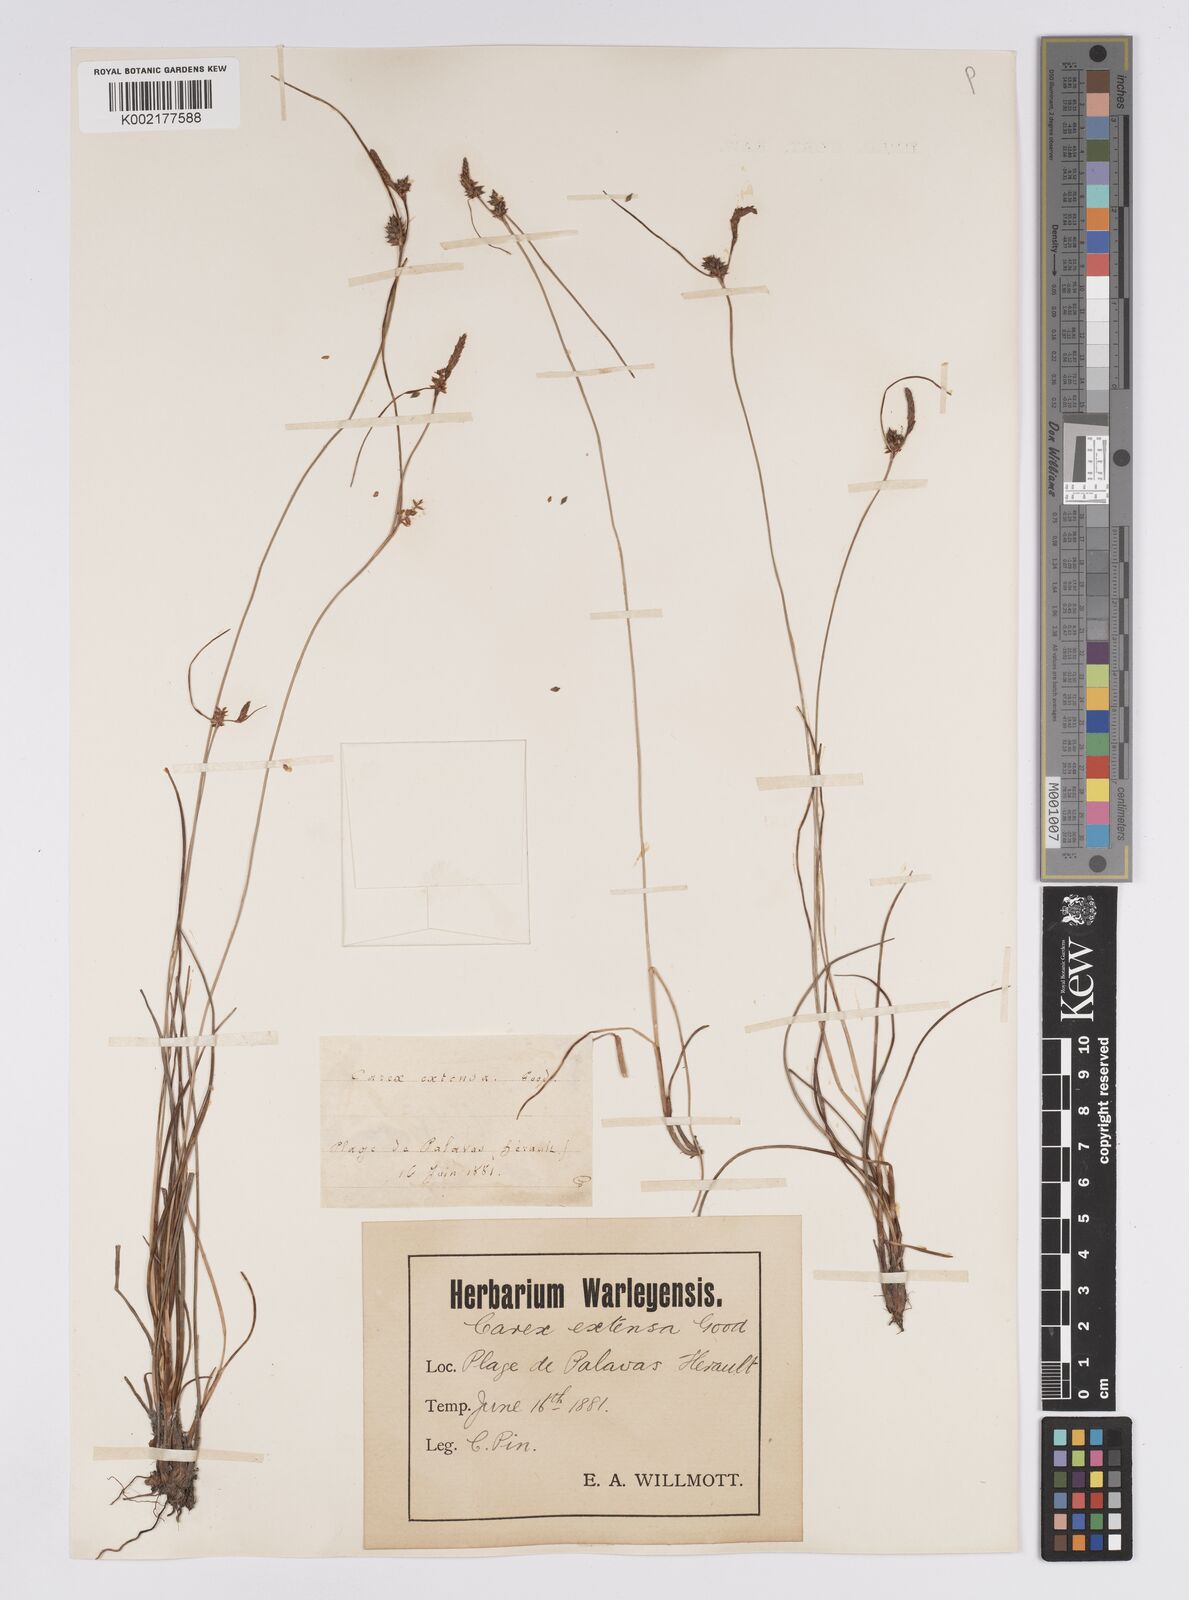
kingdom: Plantae
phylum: Tracheophyta
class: Liliopsida
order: Poales
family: Cyperaceae
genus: Carex
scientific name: Carex extensa
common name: Long-bracted sedge
